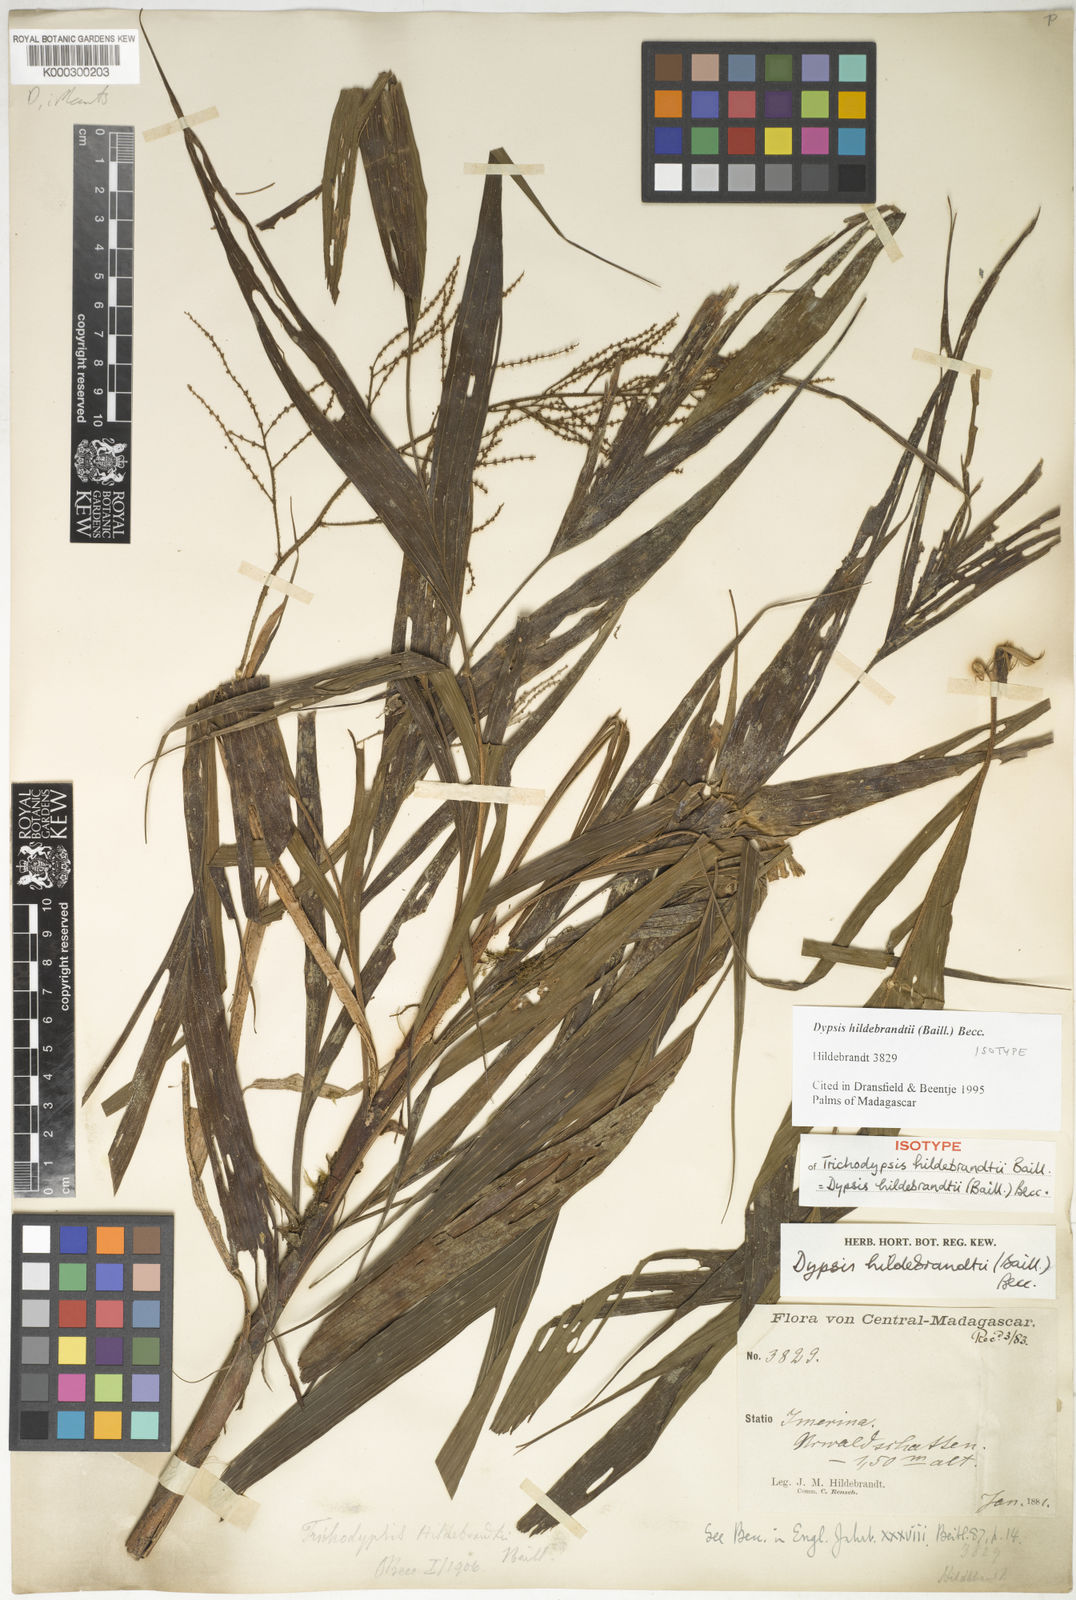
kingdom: Plantae
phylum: Tracheophyta
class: Liliopsida
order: Arecales
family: Arecaceae
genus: Dypsis
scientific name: Dypsis hildebrandtii
